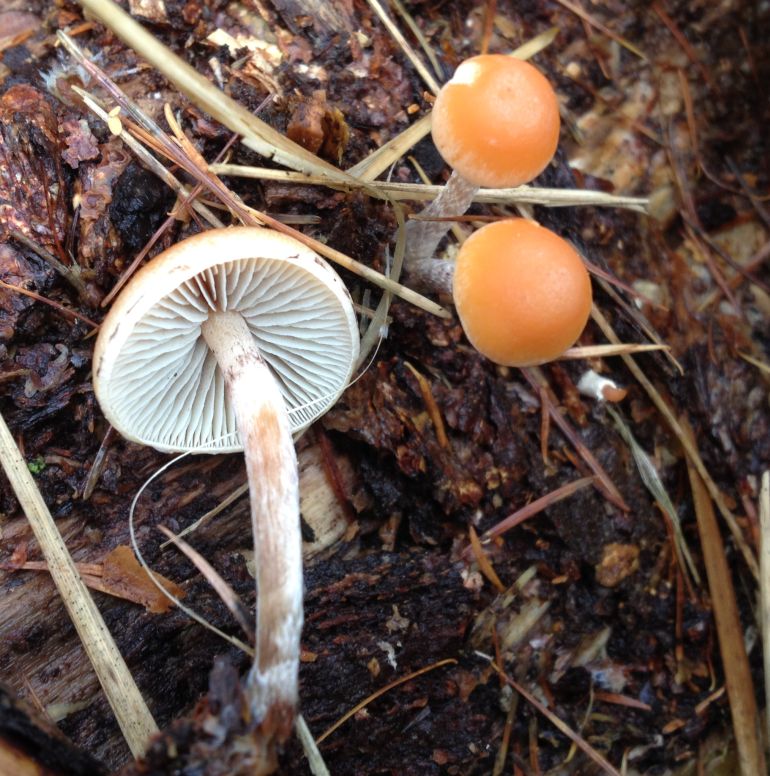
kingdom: Fungi
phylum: Basidiomycota
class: Agaricomycetes
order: Agaricales
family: Strophariaceae
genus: Hypholoma
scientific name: Hypholoma marginatum
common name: enlig svovlhat
